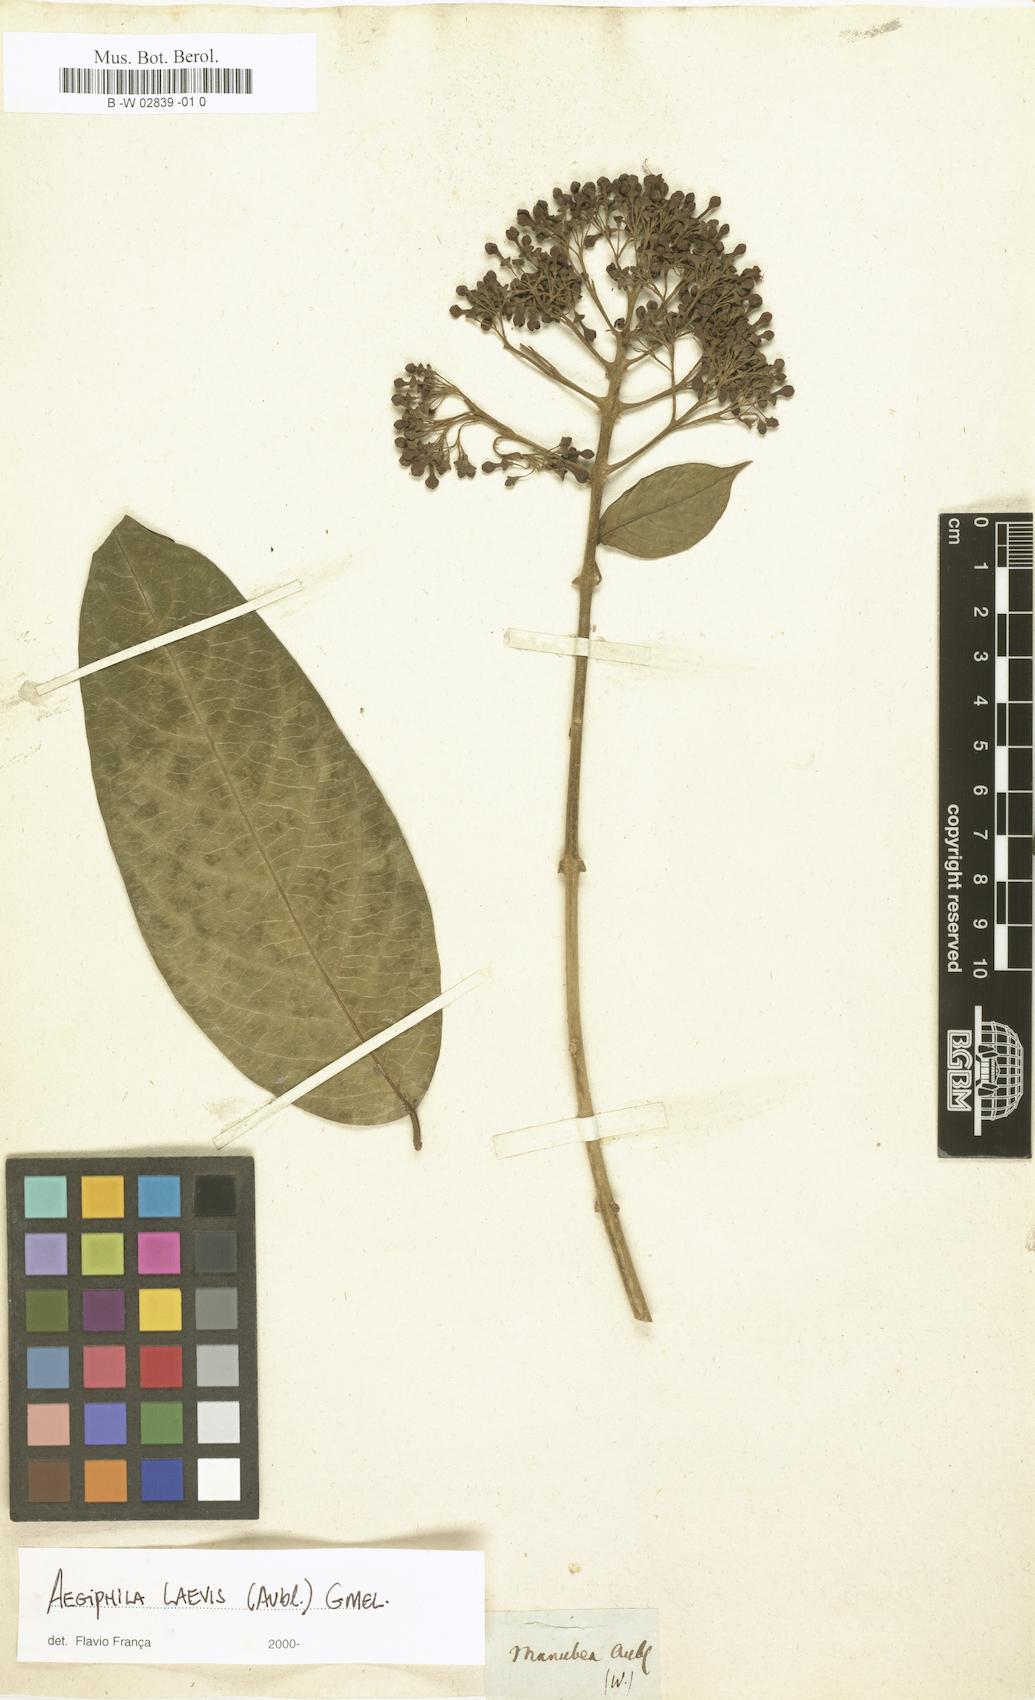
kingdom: Plantae
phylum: Tracheophyta
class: Magnoliopsida
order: Lamiales
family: Lamiaceae
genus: Aegiphila
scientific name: Aegiphila laevis
